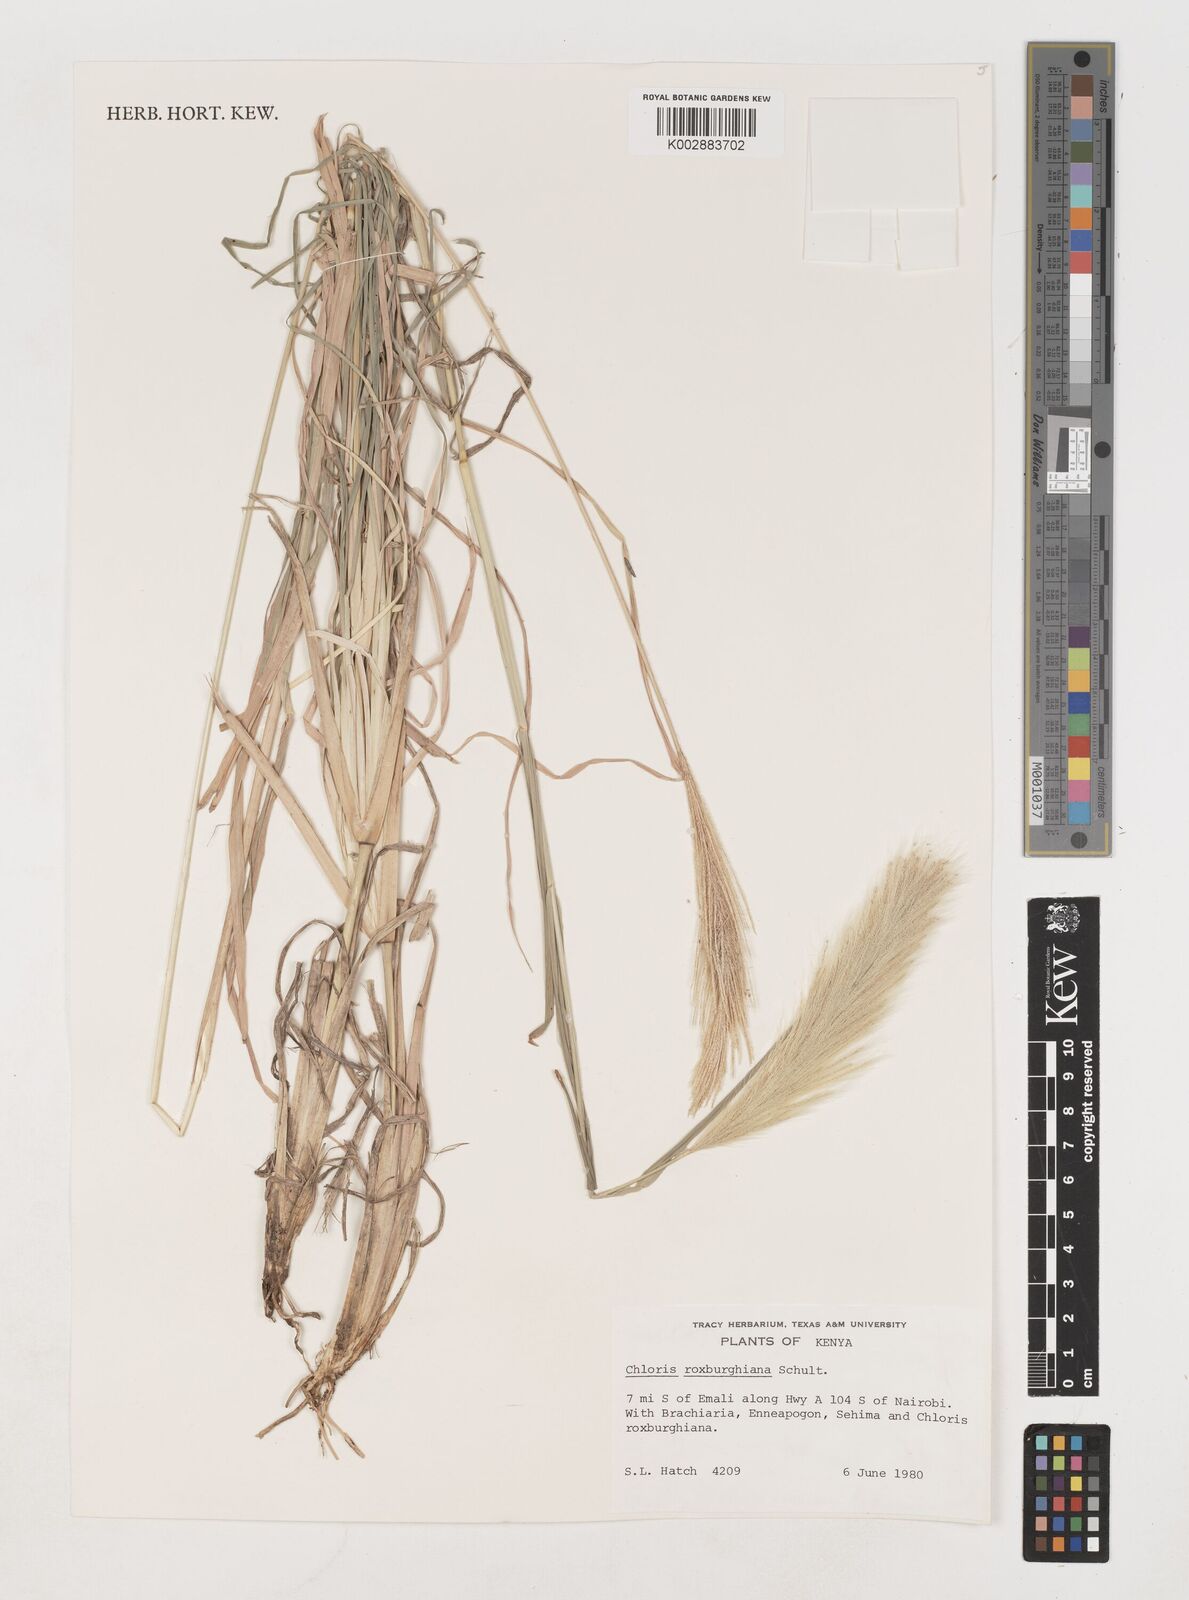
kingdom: Plantae
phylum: Tracheophyta
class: Liliopsida
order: Poales
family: Poaceae
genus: Tetrapogon
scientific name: Tetrapogon roxburghiana
